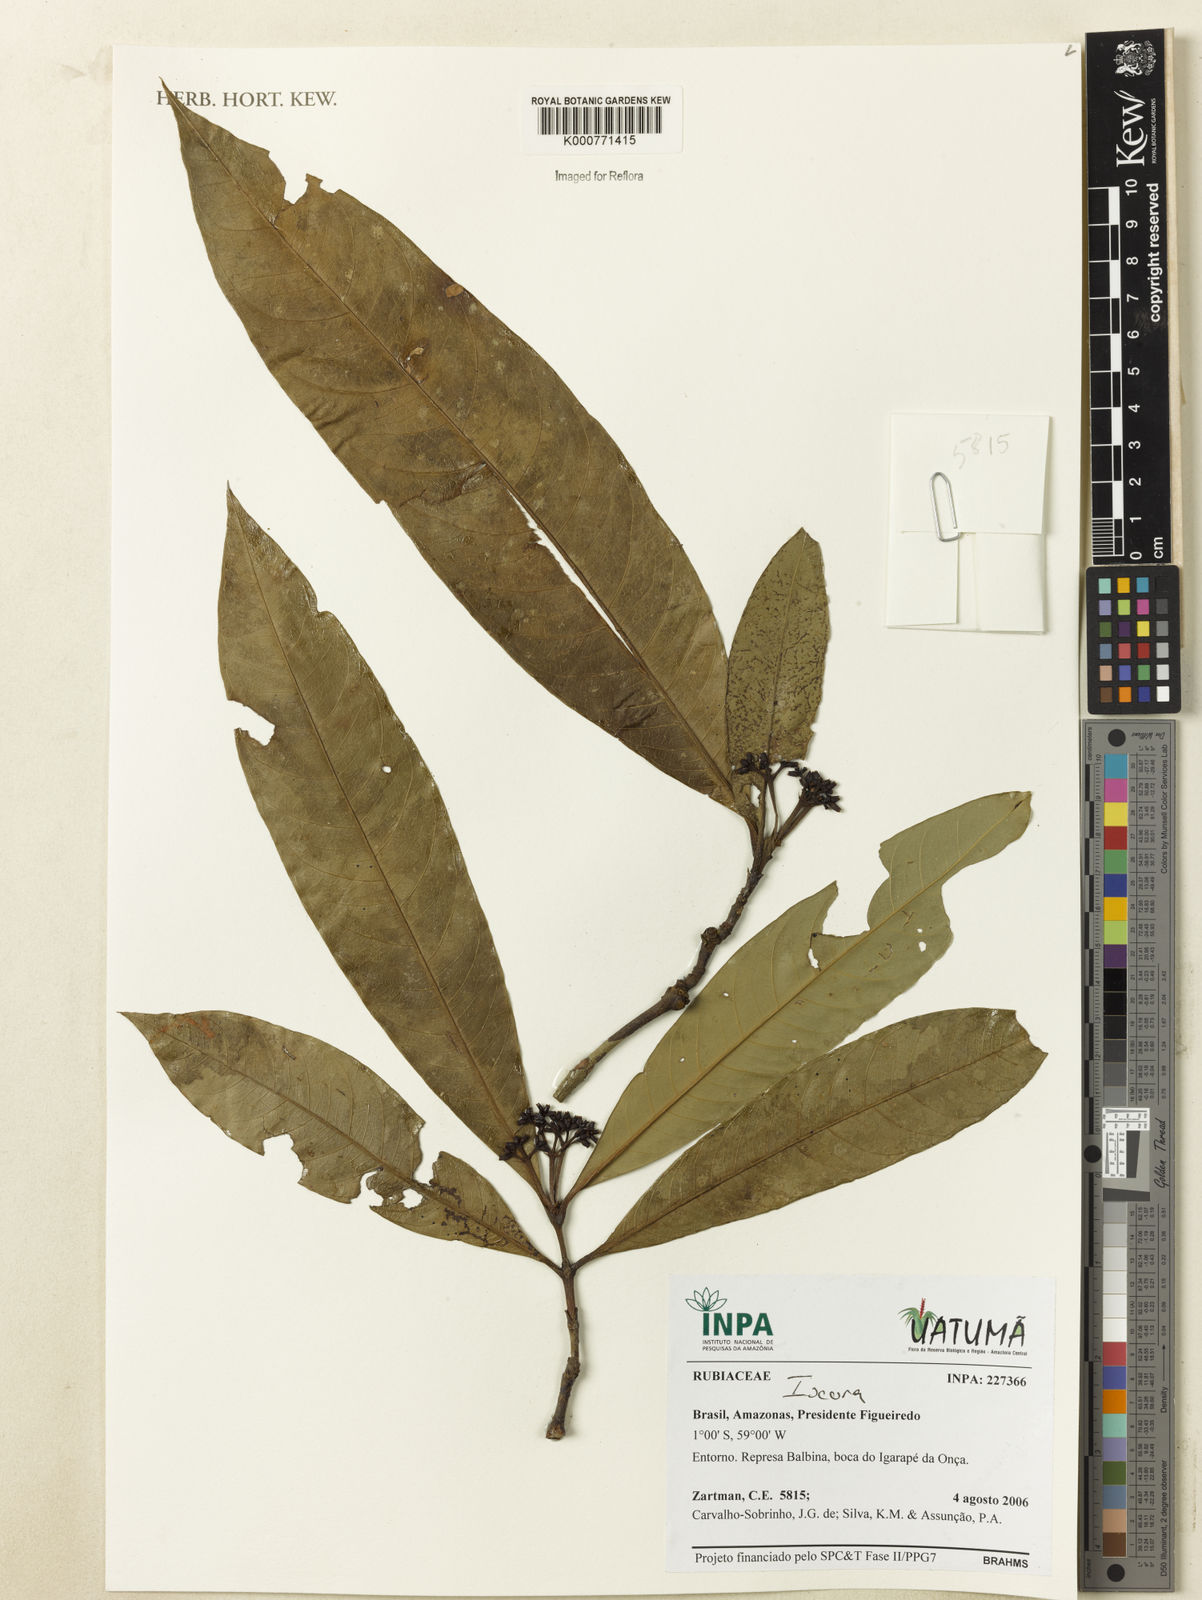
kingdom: Plantae
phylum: Tracheophyta
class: Magnoliopsida
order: Gentianales
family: Rubiaceae
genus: Psychotria
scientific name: Psychotria
